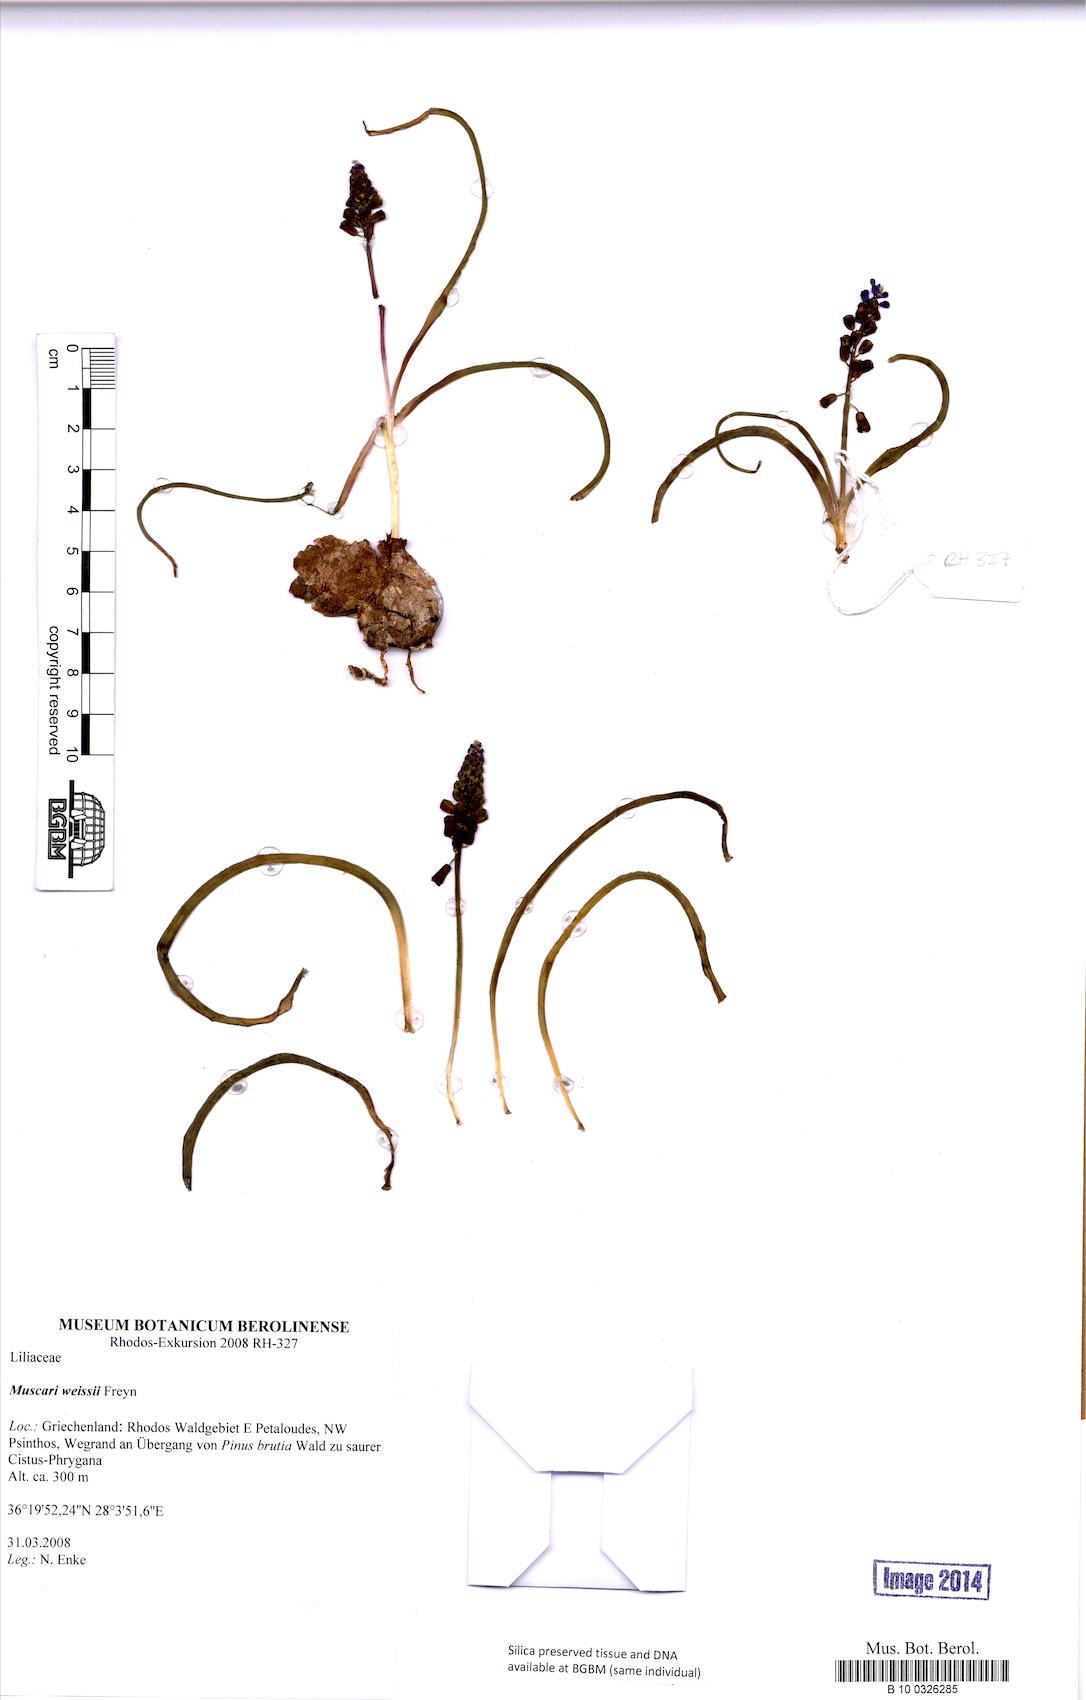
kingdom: Plantae
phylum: Tracheophyta
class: Liliopsida
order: Asparagales
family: Asparagaceae
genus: Muscari
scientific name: Muscari weissii
